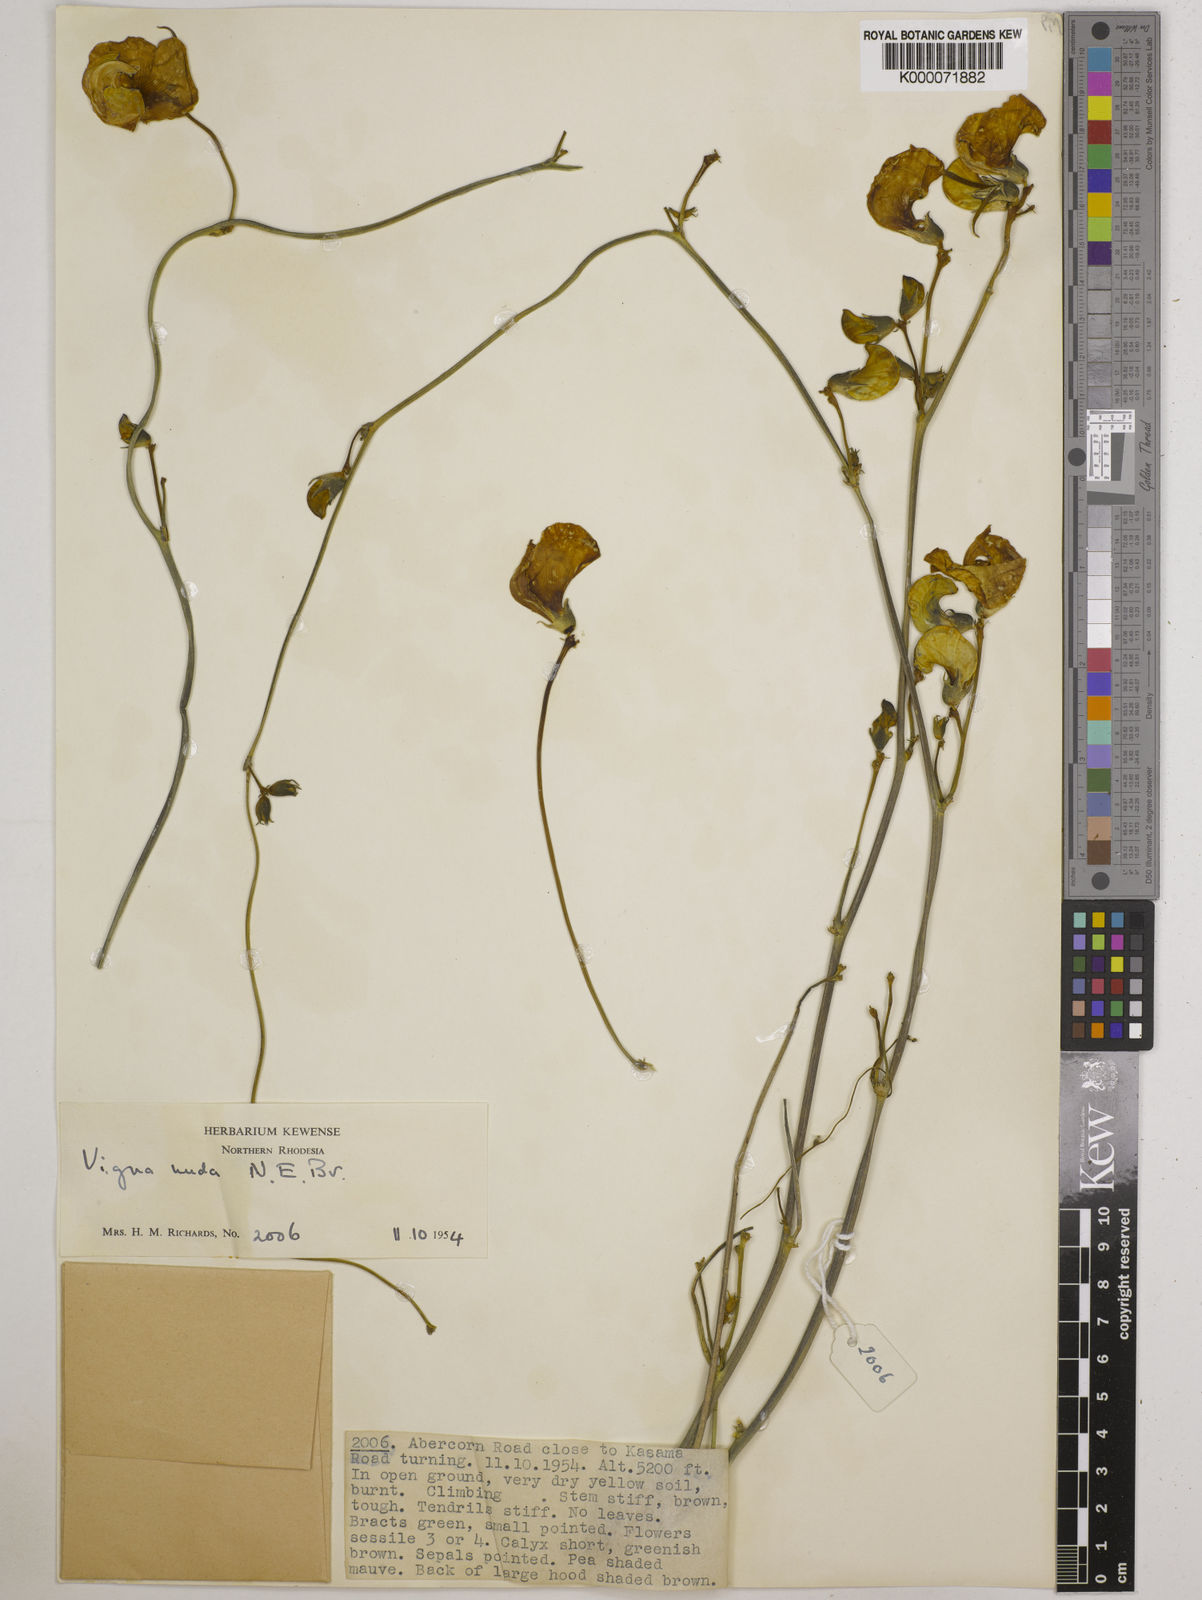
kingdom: Plantae
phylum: Tracheophyta
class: Magnoliopsida
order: Fabales
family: Fabaceae
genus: Vigna
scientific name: Vigna antunesii
